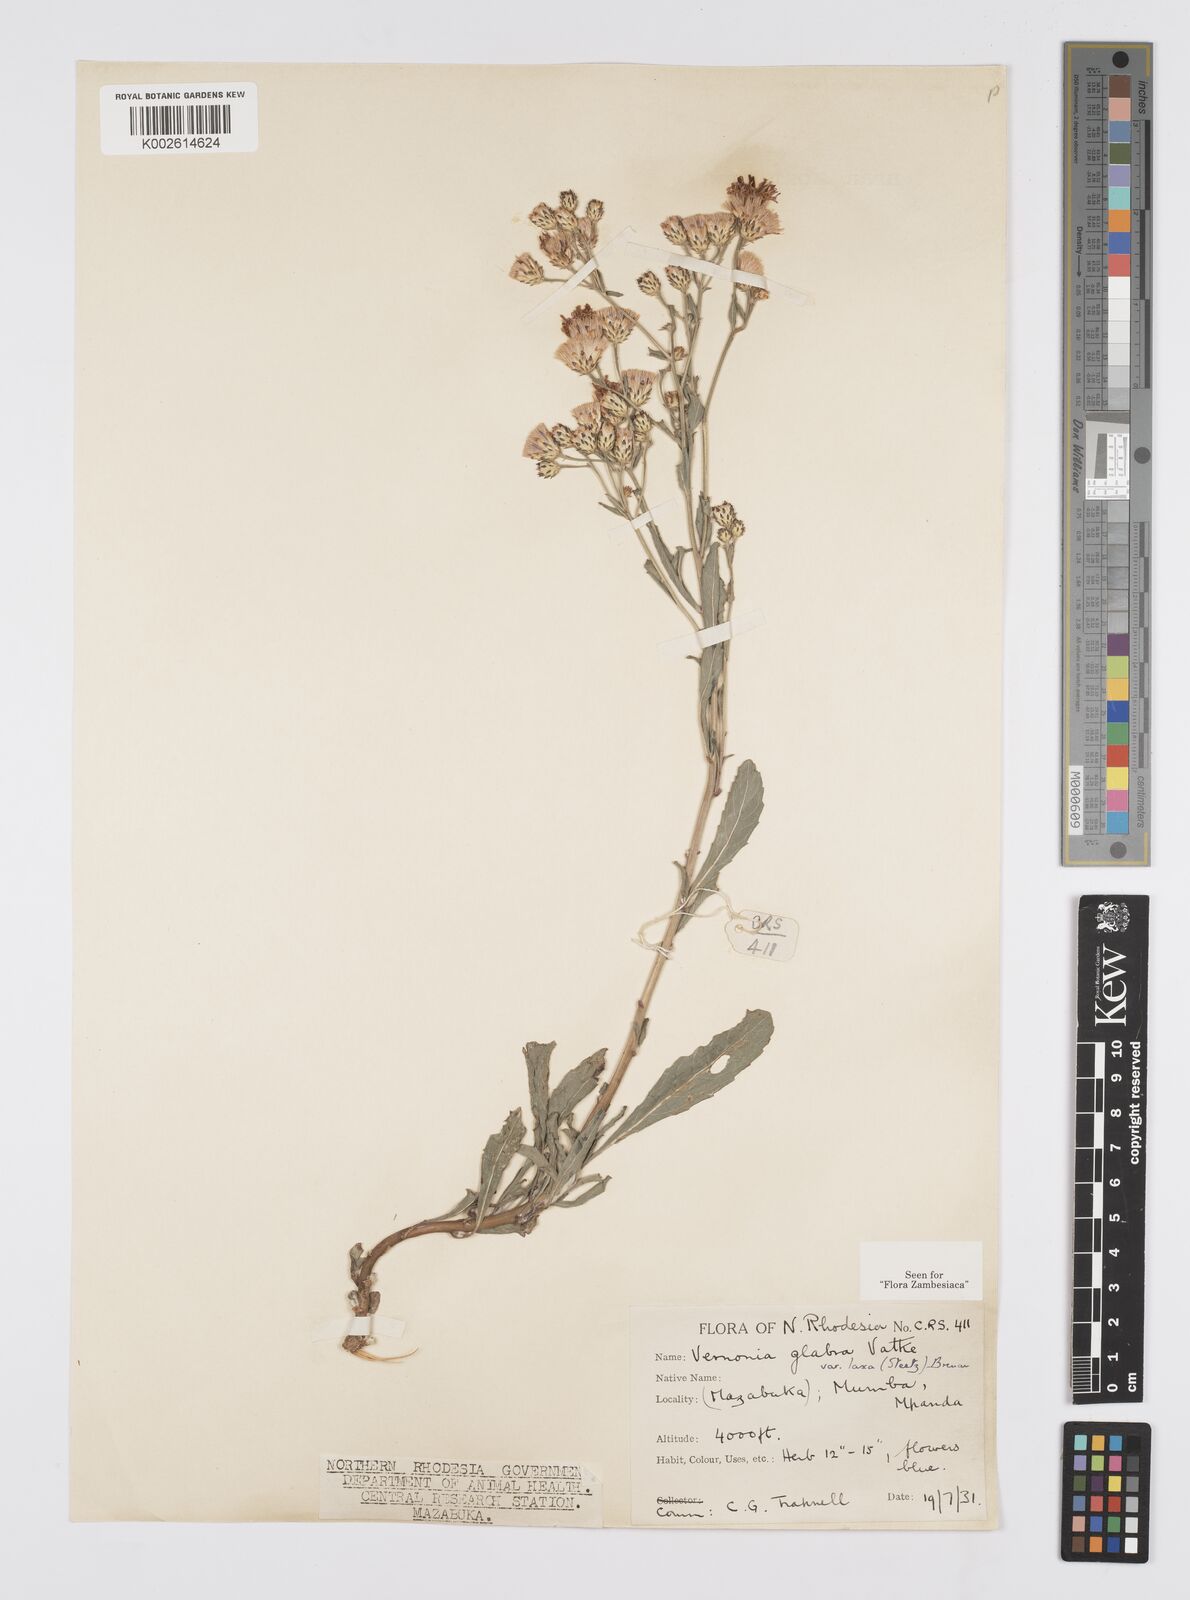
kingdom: Plantae
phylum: Tracheophyta
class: Magnoliopsida
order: Asterales
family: Asteraceae
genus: Linzia
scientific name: Linzia glabra
